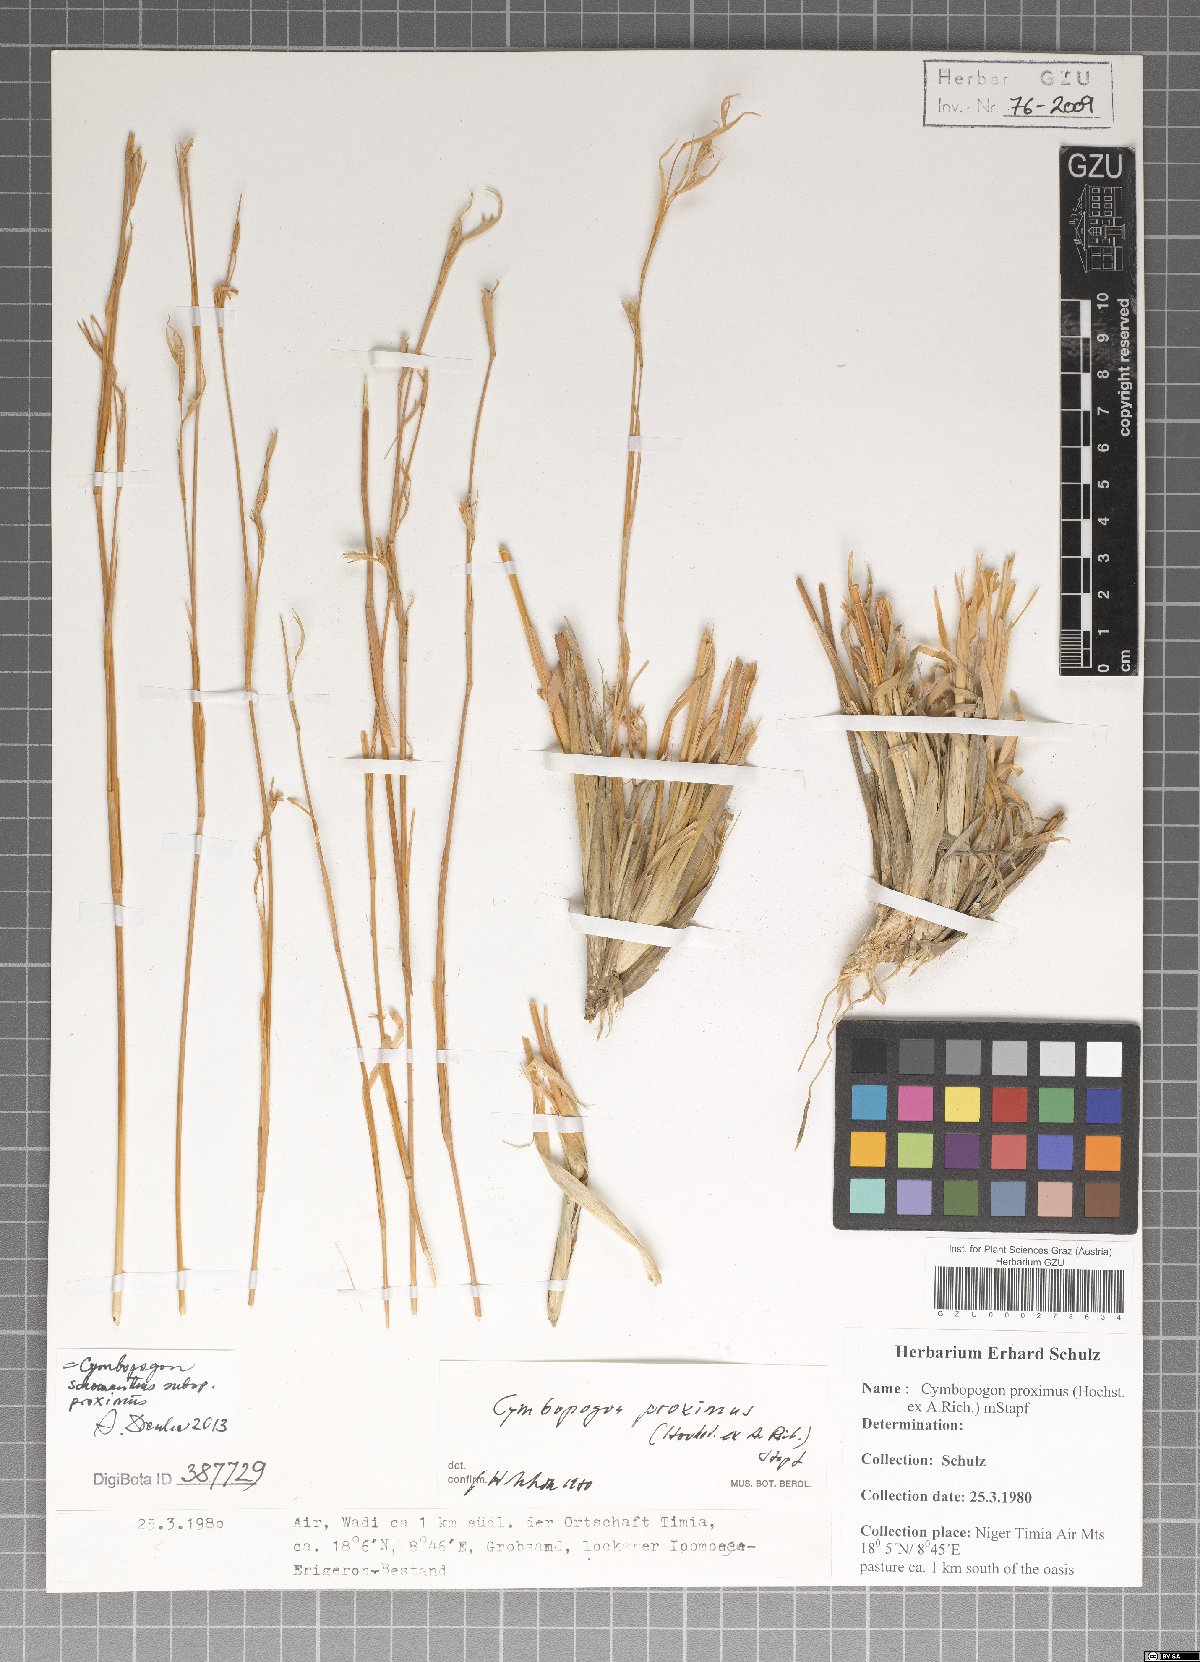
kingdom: Plantae
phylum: Tracheophyta
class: Liliopsida
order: Poales
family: Poaceae
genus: Cymbopogon
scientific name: Cymbopogon schoenanthus
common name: Geranium grass
